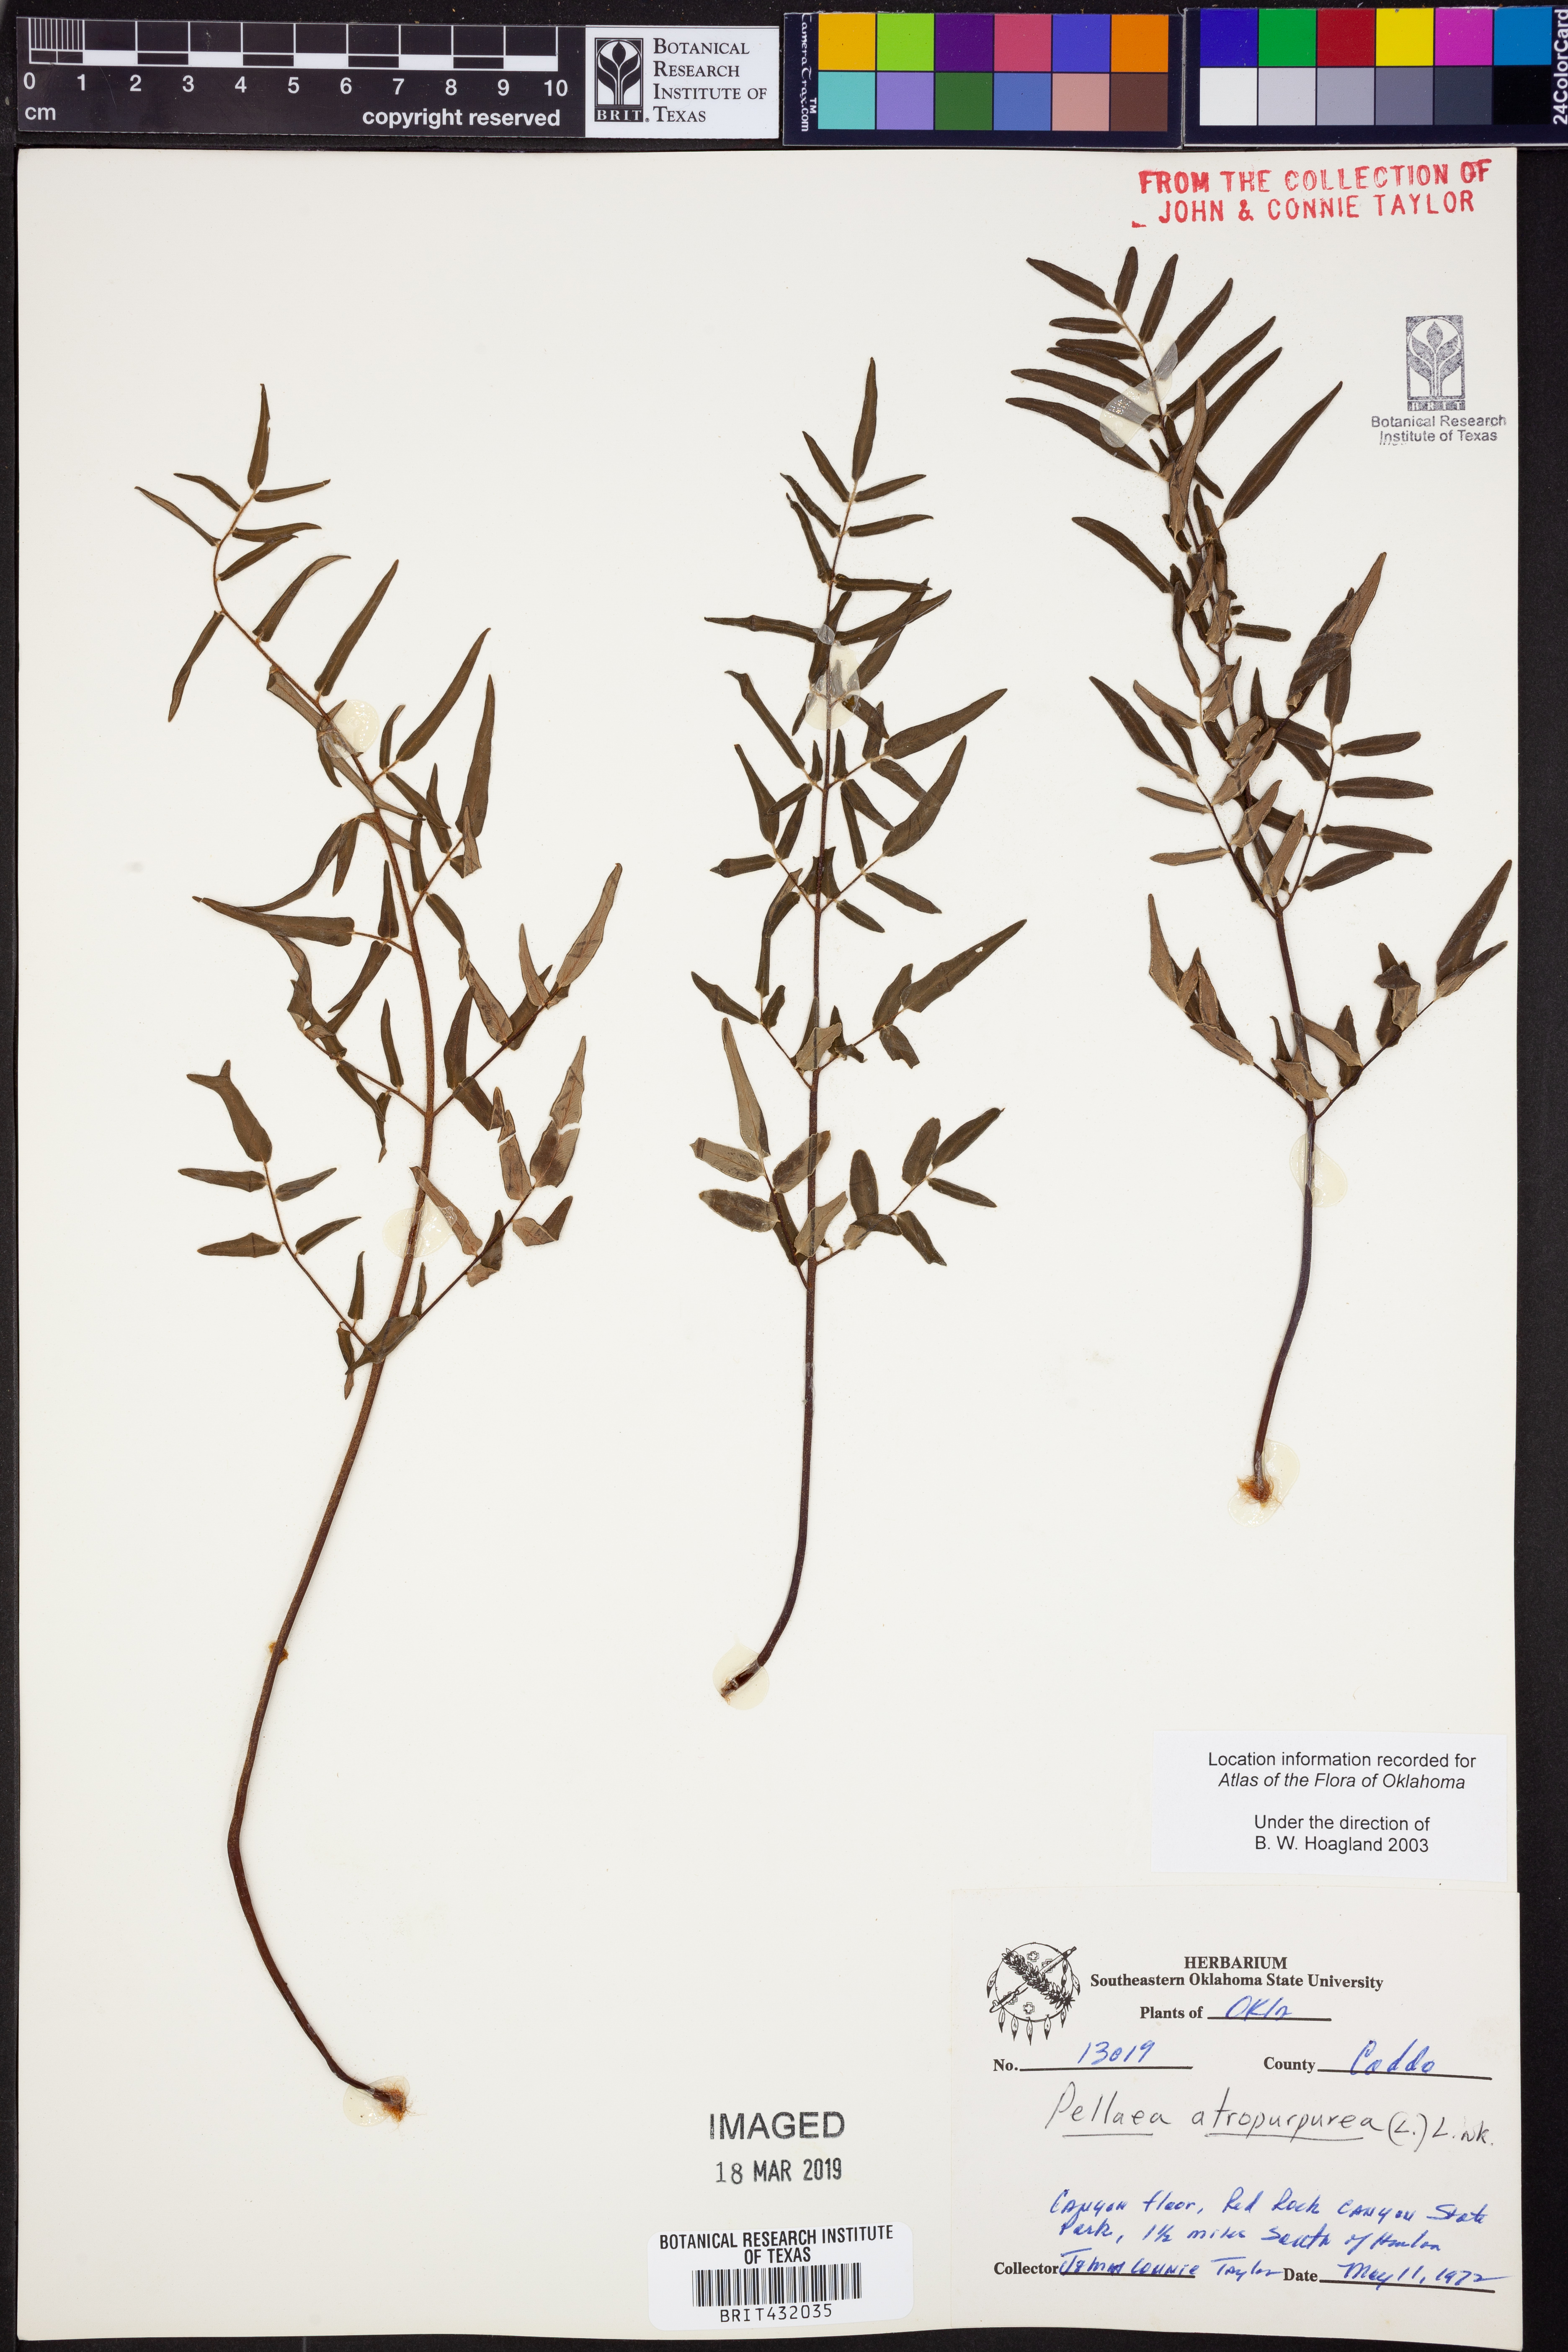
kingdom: Plantae
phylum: Tracheophyta
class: Polypodiopsida
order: Polypodiales
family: Pteridaceae
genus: Pellaea
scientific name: Pellaea atropurpurea
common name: Hairy cliffbrake
